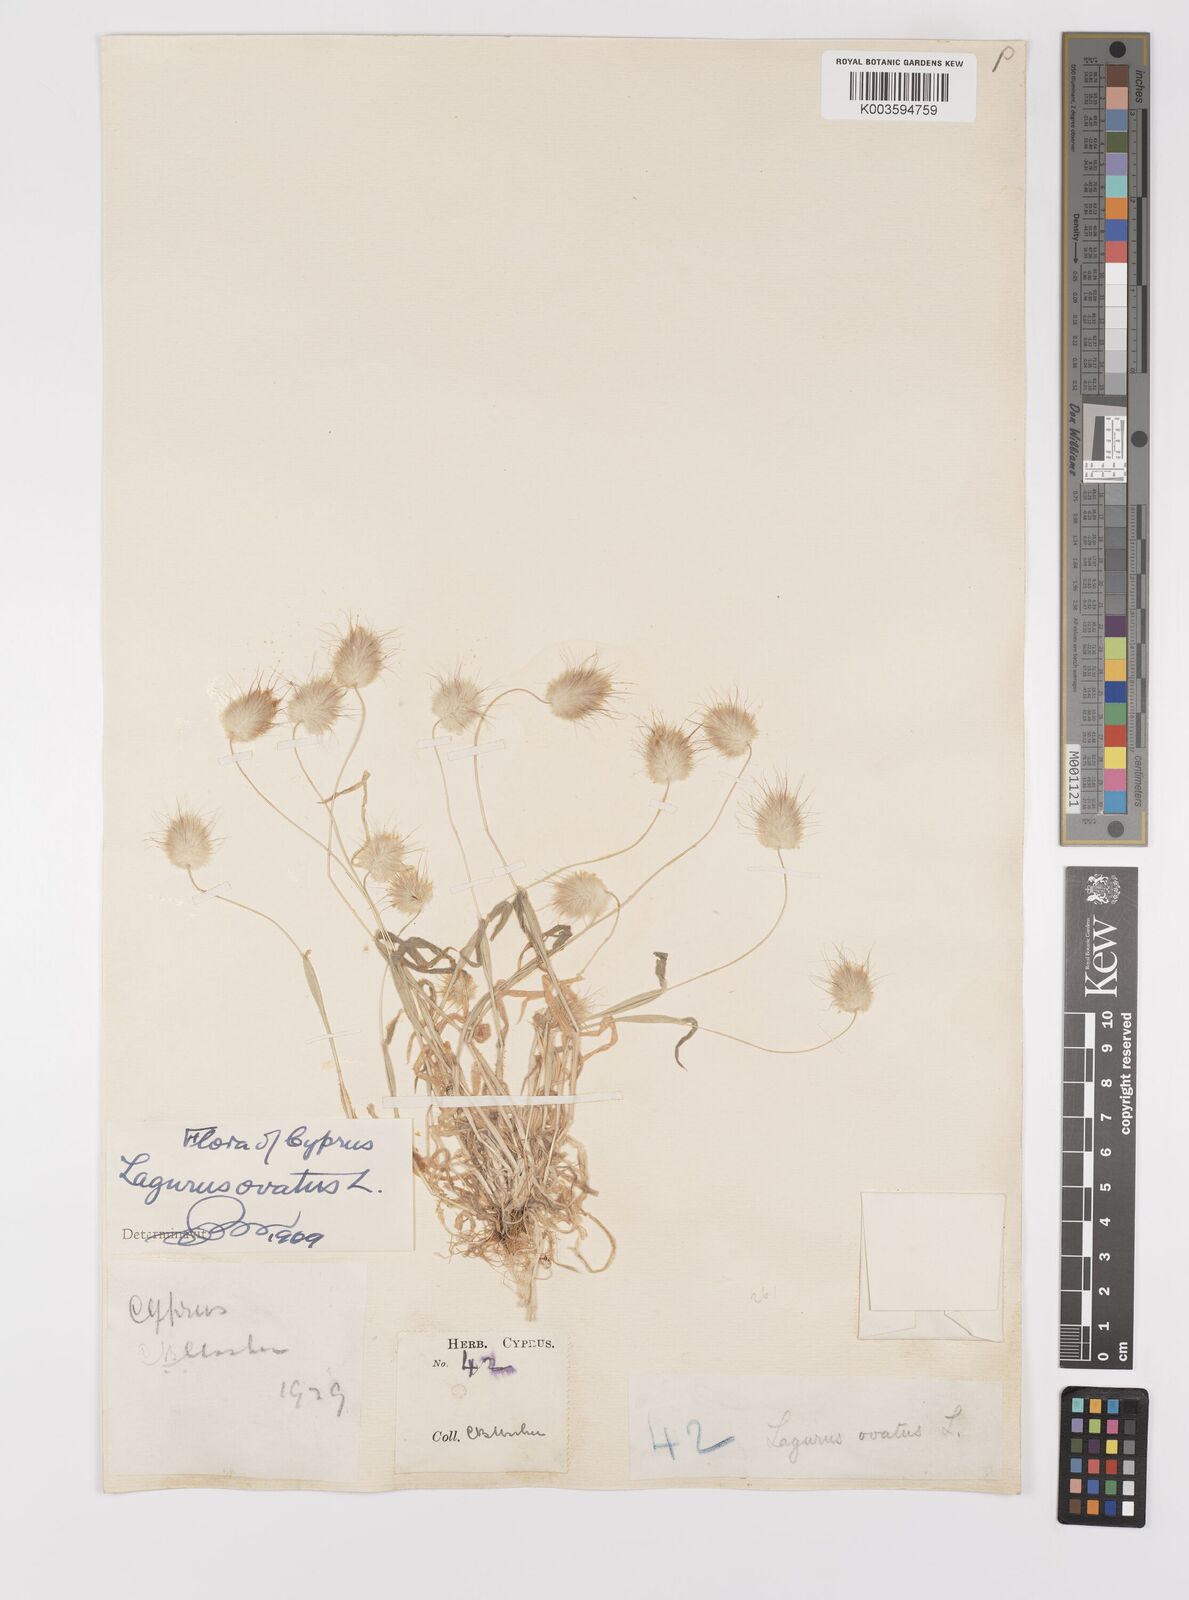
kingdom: Plantae
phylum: Tracheophyta
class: Liliopsida
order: Poales
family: Poaceae
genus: Lagurus
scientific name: Lagurus ovatus
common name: Hare's-tail
